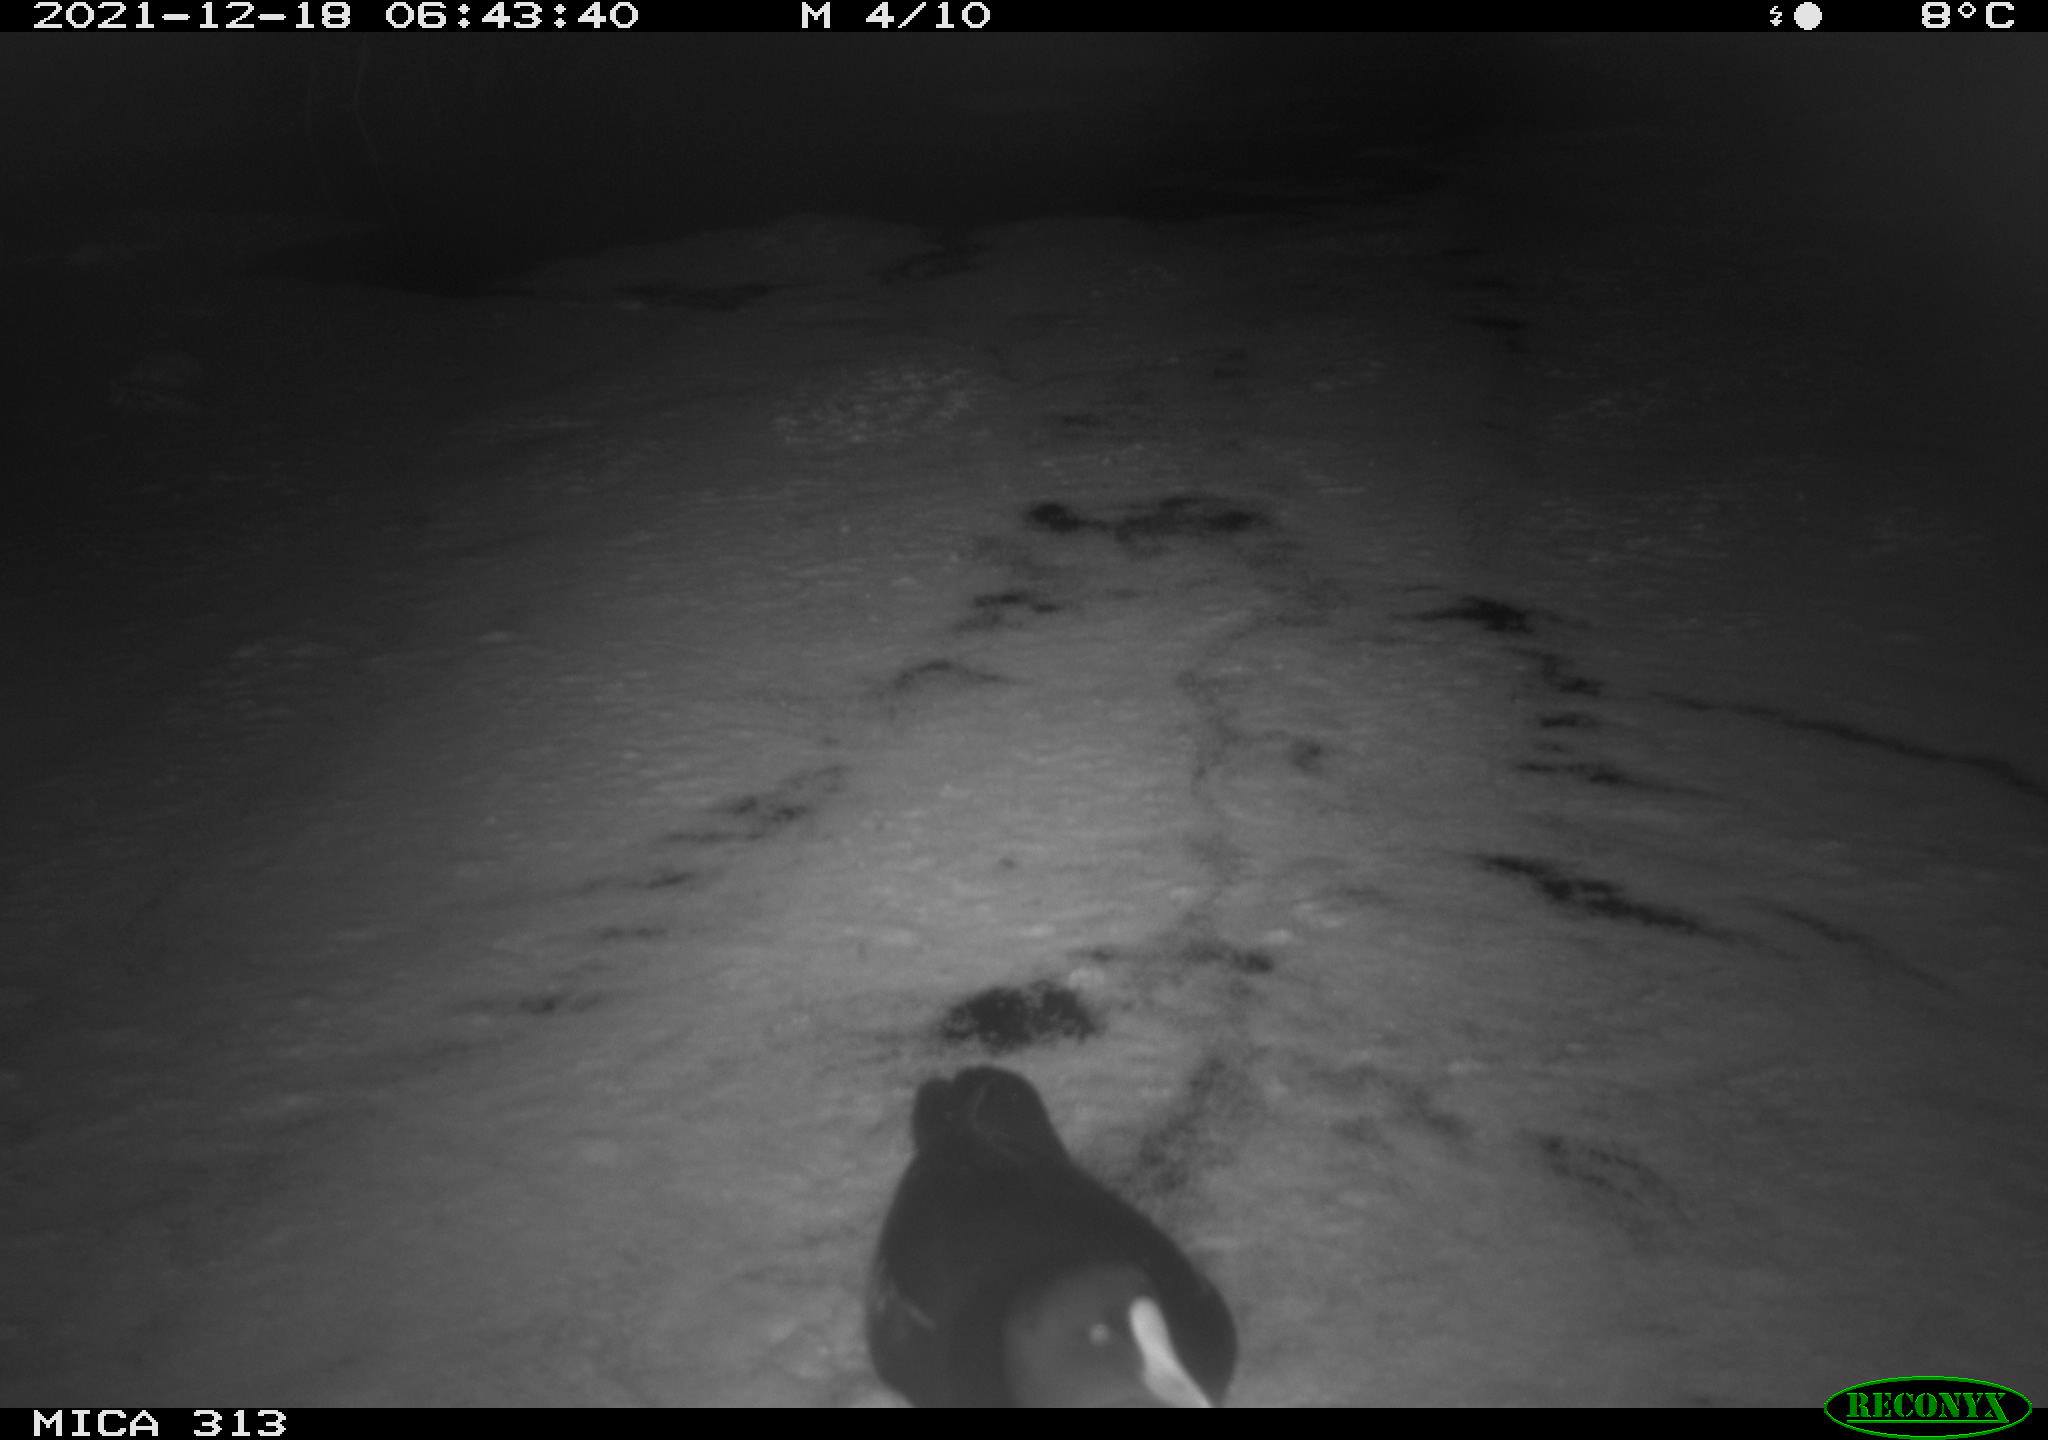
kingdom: Animalia
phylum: Chordata
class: Aves
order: Gruiformes
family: Rallidae
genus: Gallinula
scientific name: Gallinula chloropus
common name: Common moorhen
